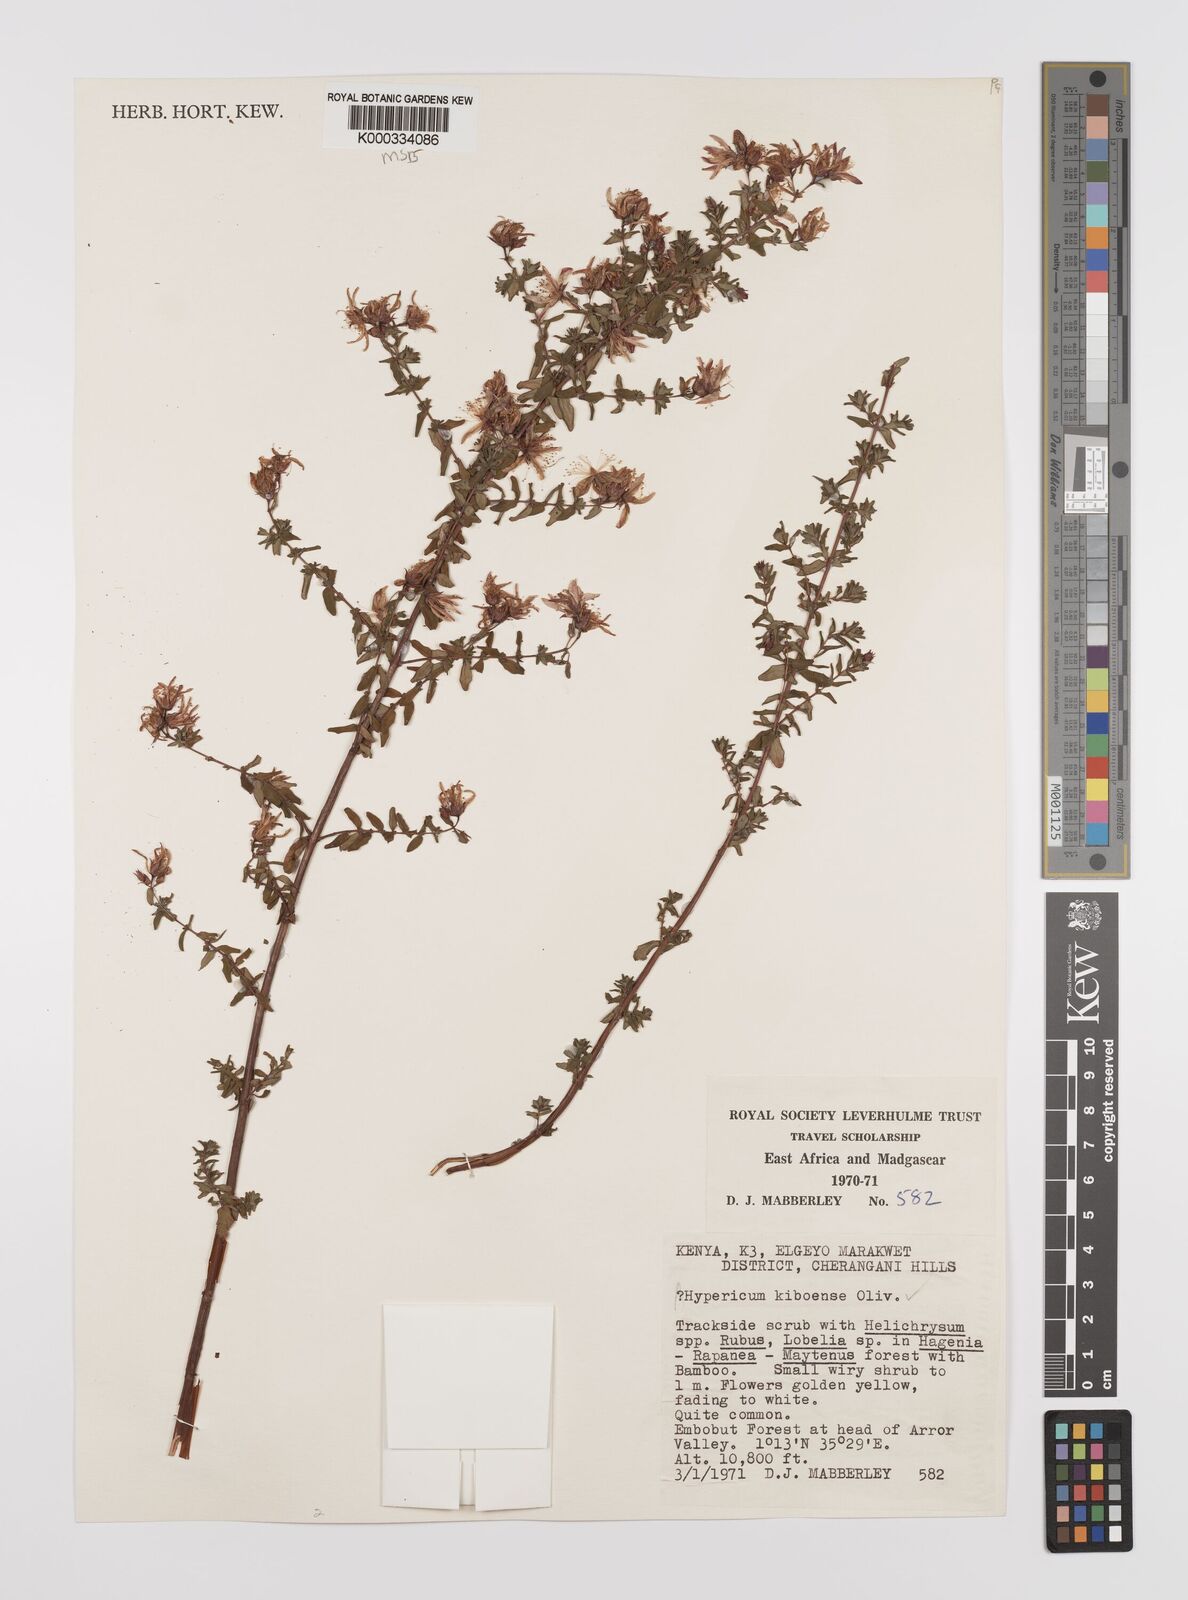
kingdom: Plantae
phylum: Tracheophyta
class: Magnoliopsida
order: Malpighiales
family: Hypericaceae
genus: Hypericum
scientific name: Hypericum kiboense
